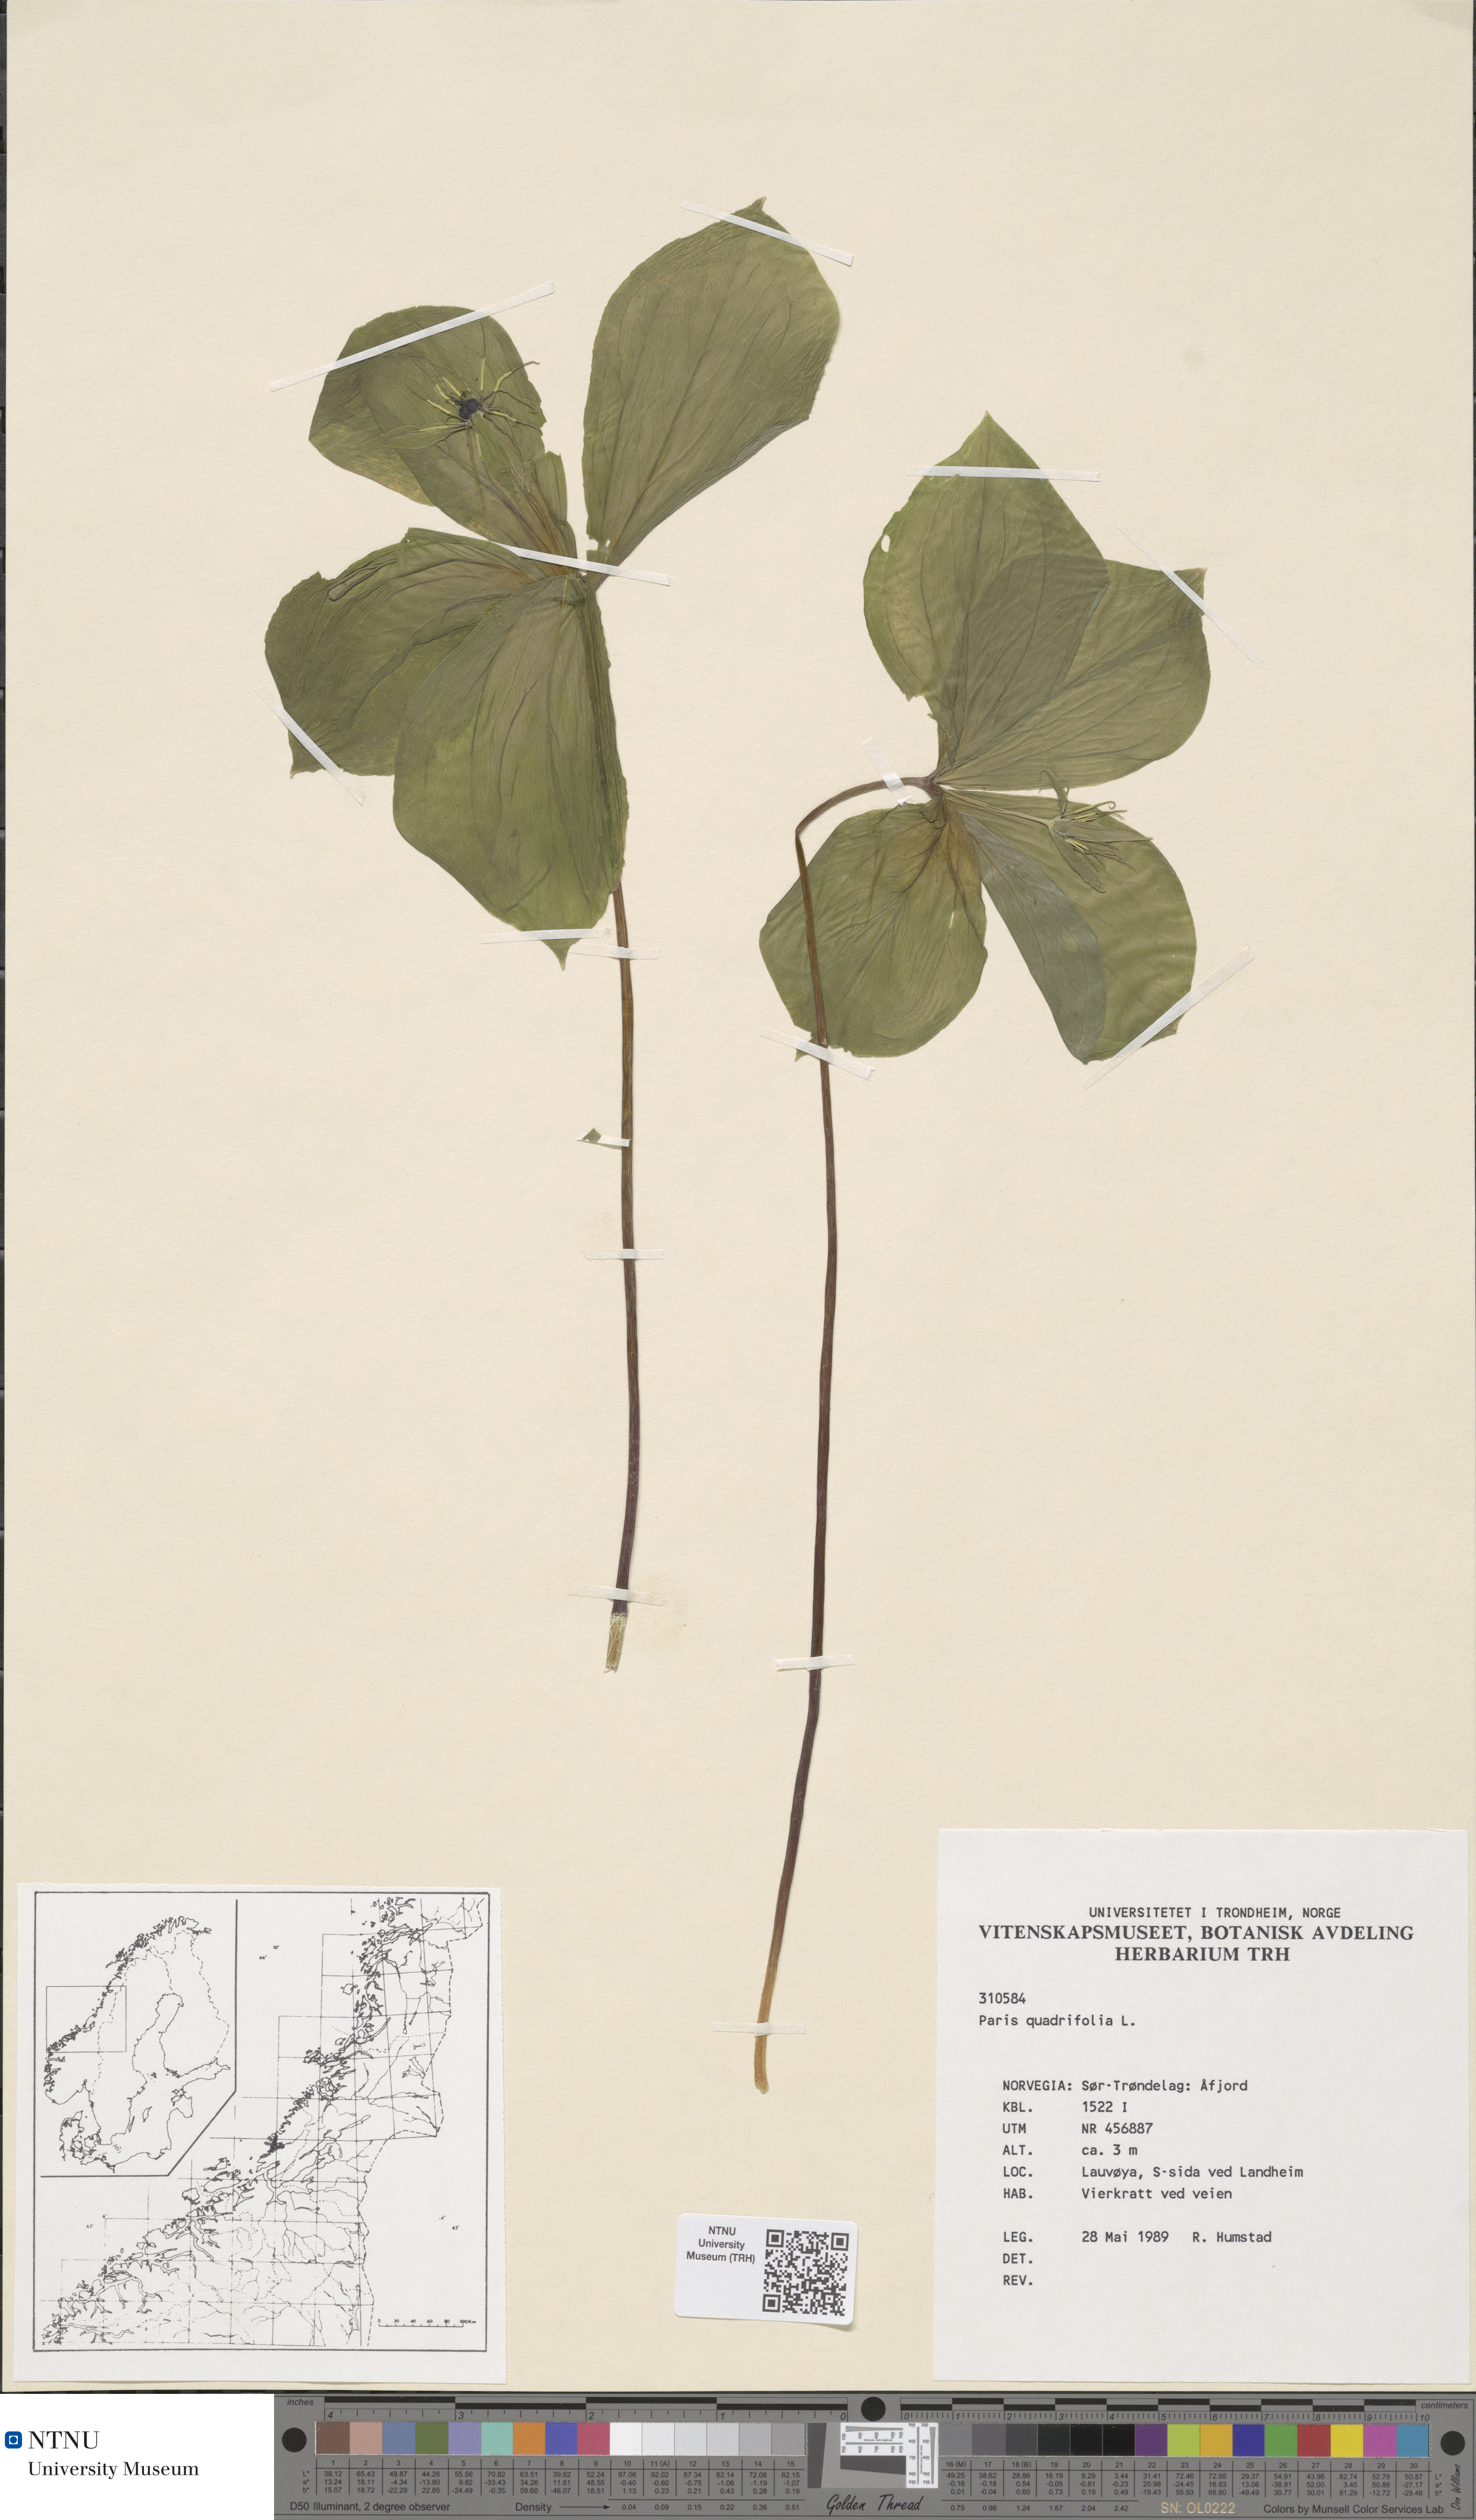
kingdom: Plantae
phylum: Tracheophyta
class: Liliopsida
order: Liliales
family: Melanthiaceae
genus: Paris
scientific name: Paris quadrifolia
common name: Herb-paris
